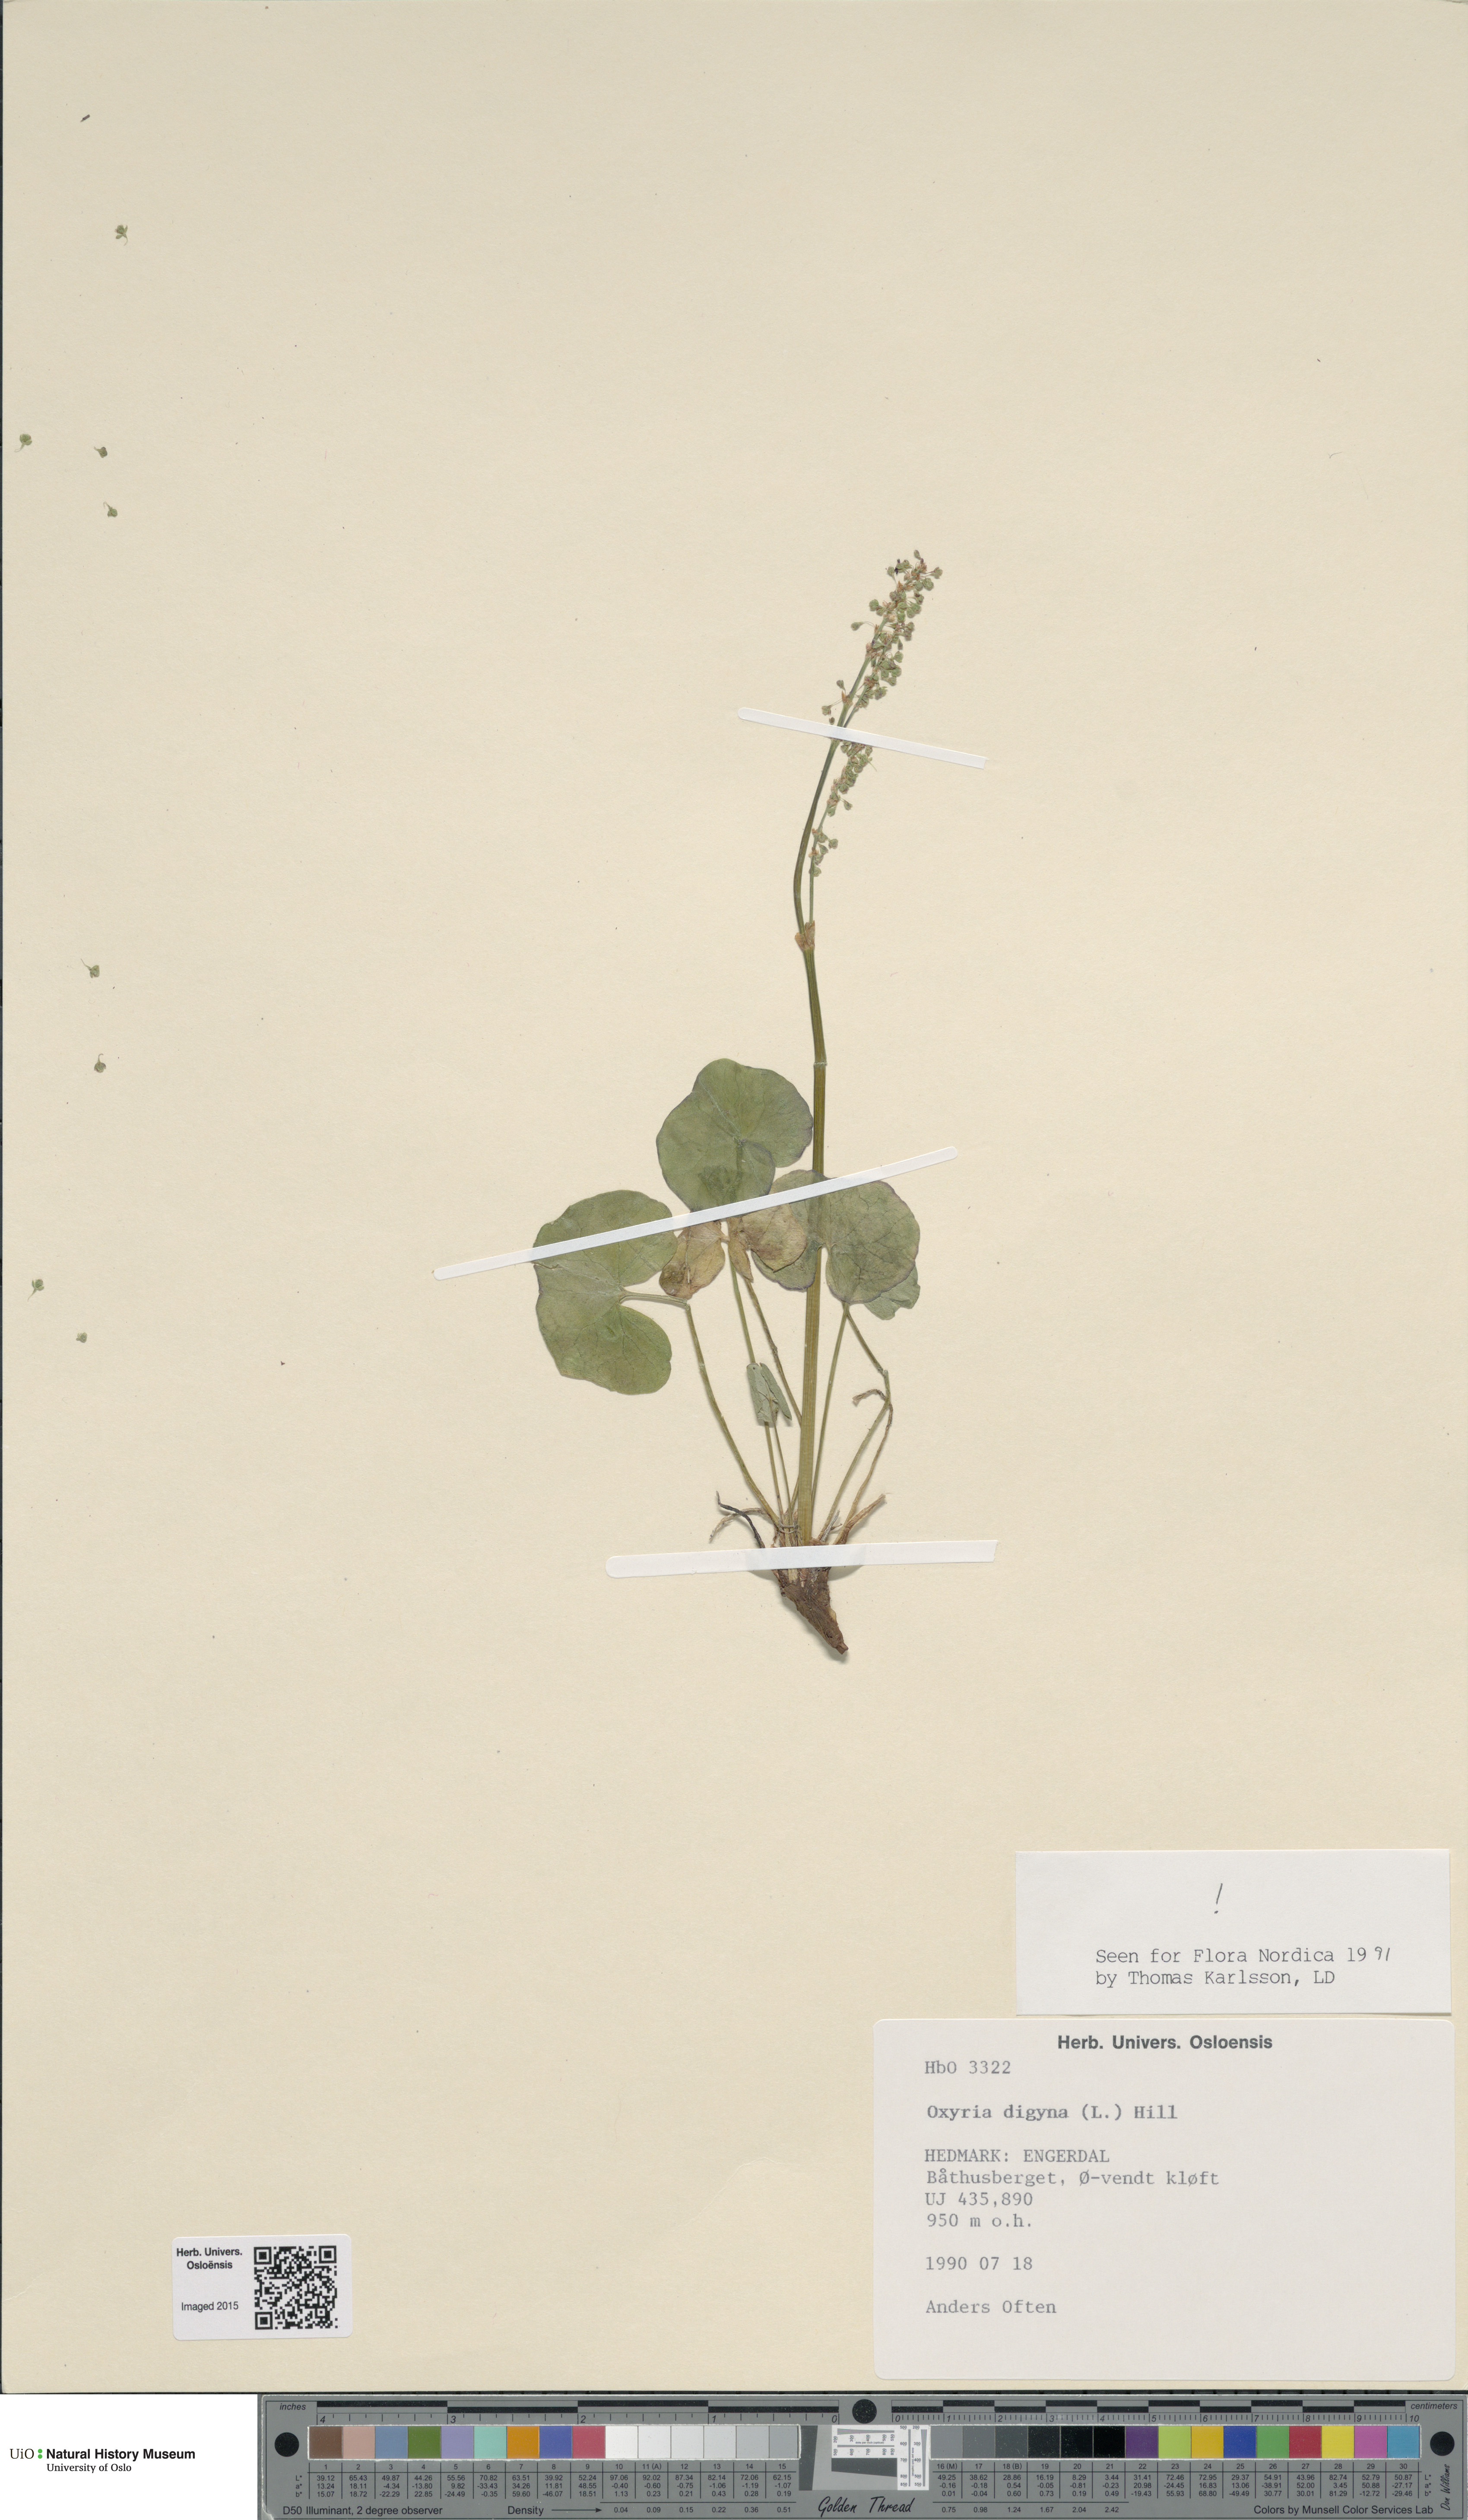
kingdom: Plantae
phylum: Tracheophyta
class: Magnoliopsida
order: Caryophyllales
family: Polygonaceae
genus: Oxyria
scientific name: Oxyria digyna
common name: Alpine mountain-sorrel
